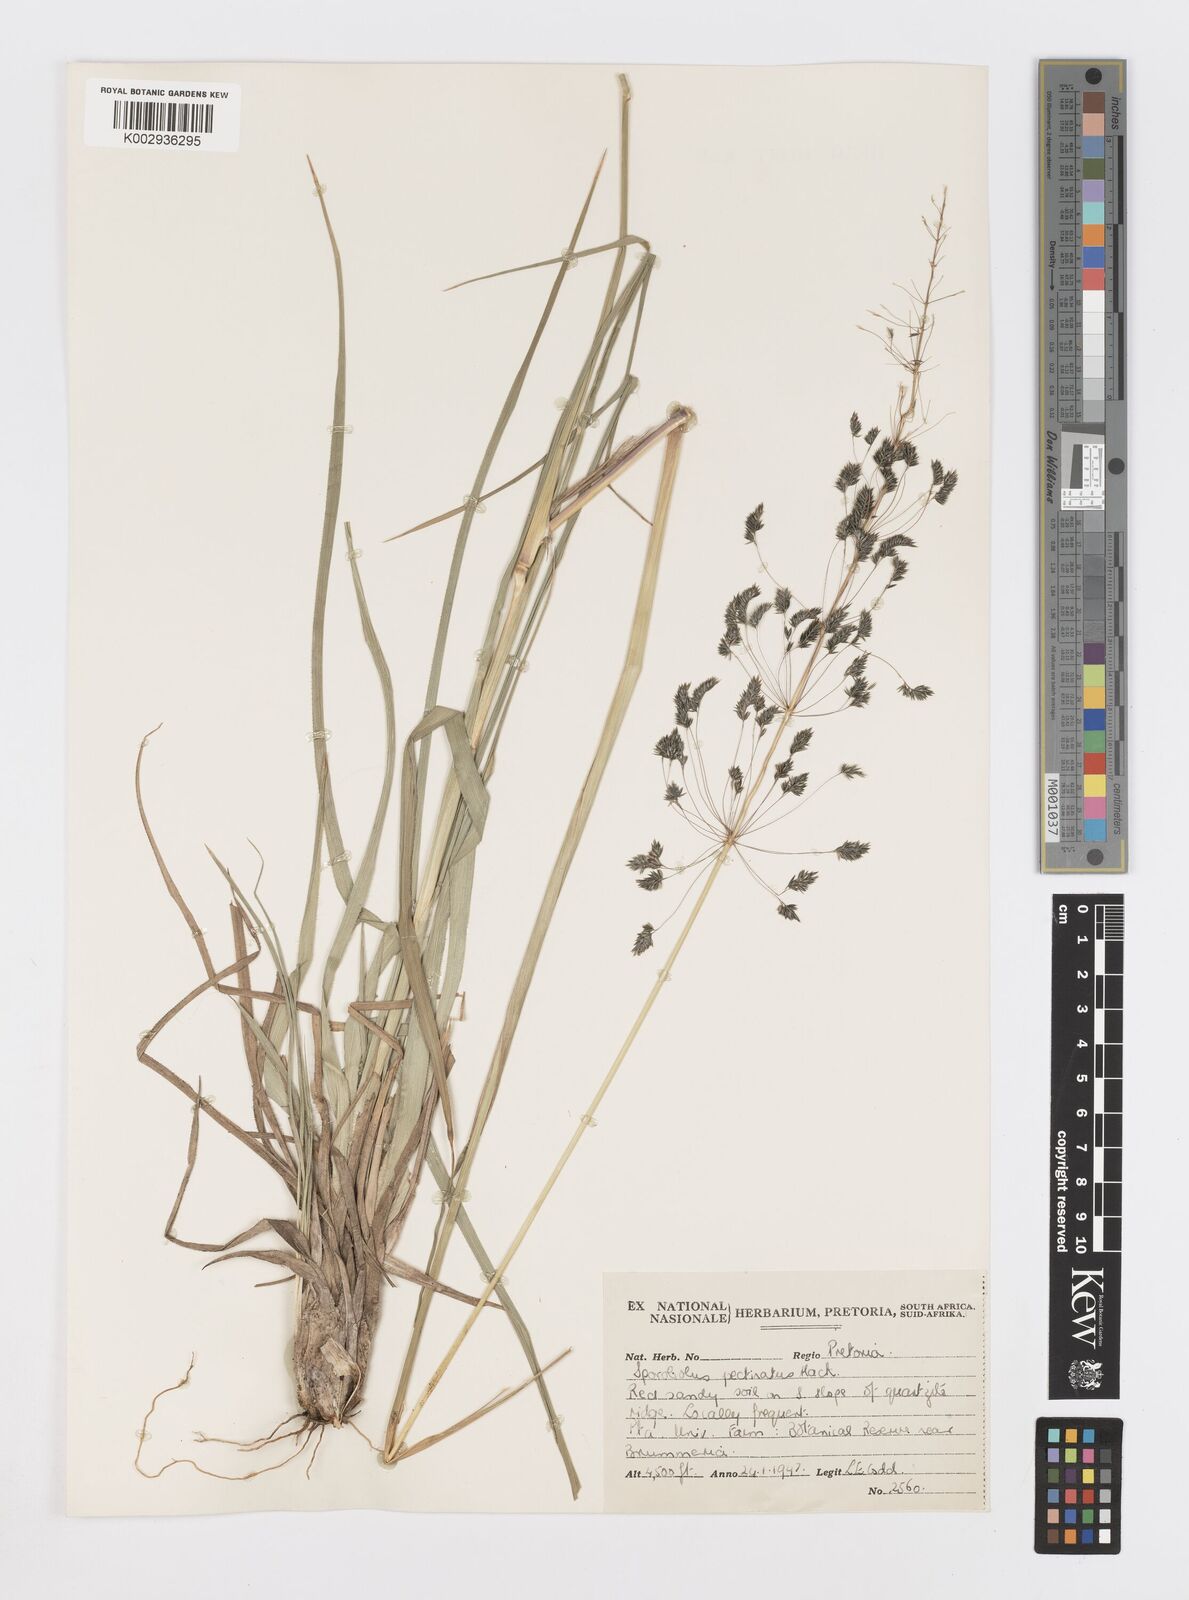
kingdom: Plantae
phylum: Tracheophyta
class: Liliopsida
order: Poales
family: Poaceae
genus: Sporobolus
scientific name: Sporobolus pectinatus
